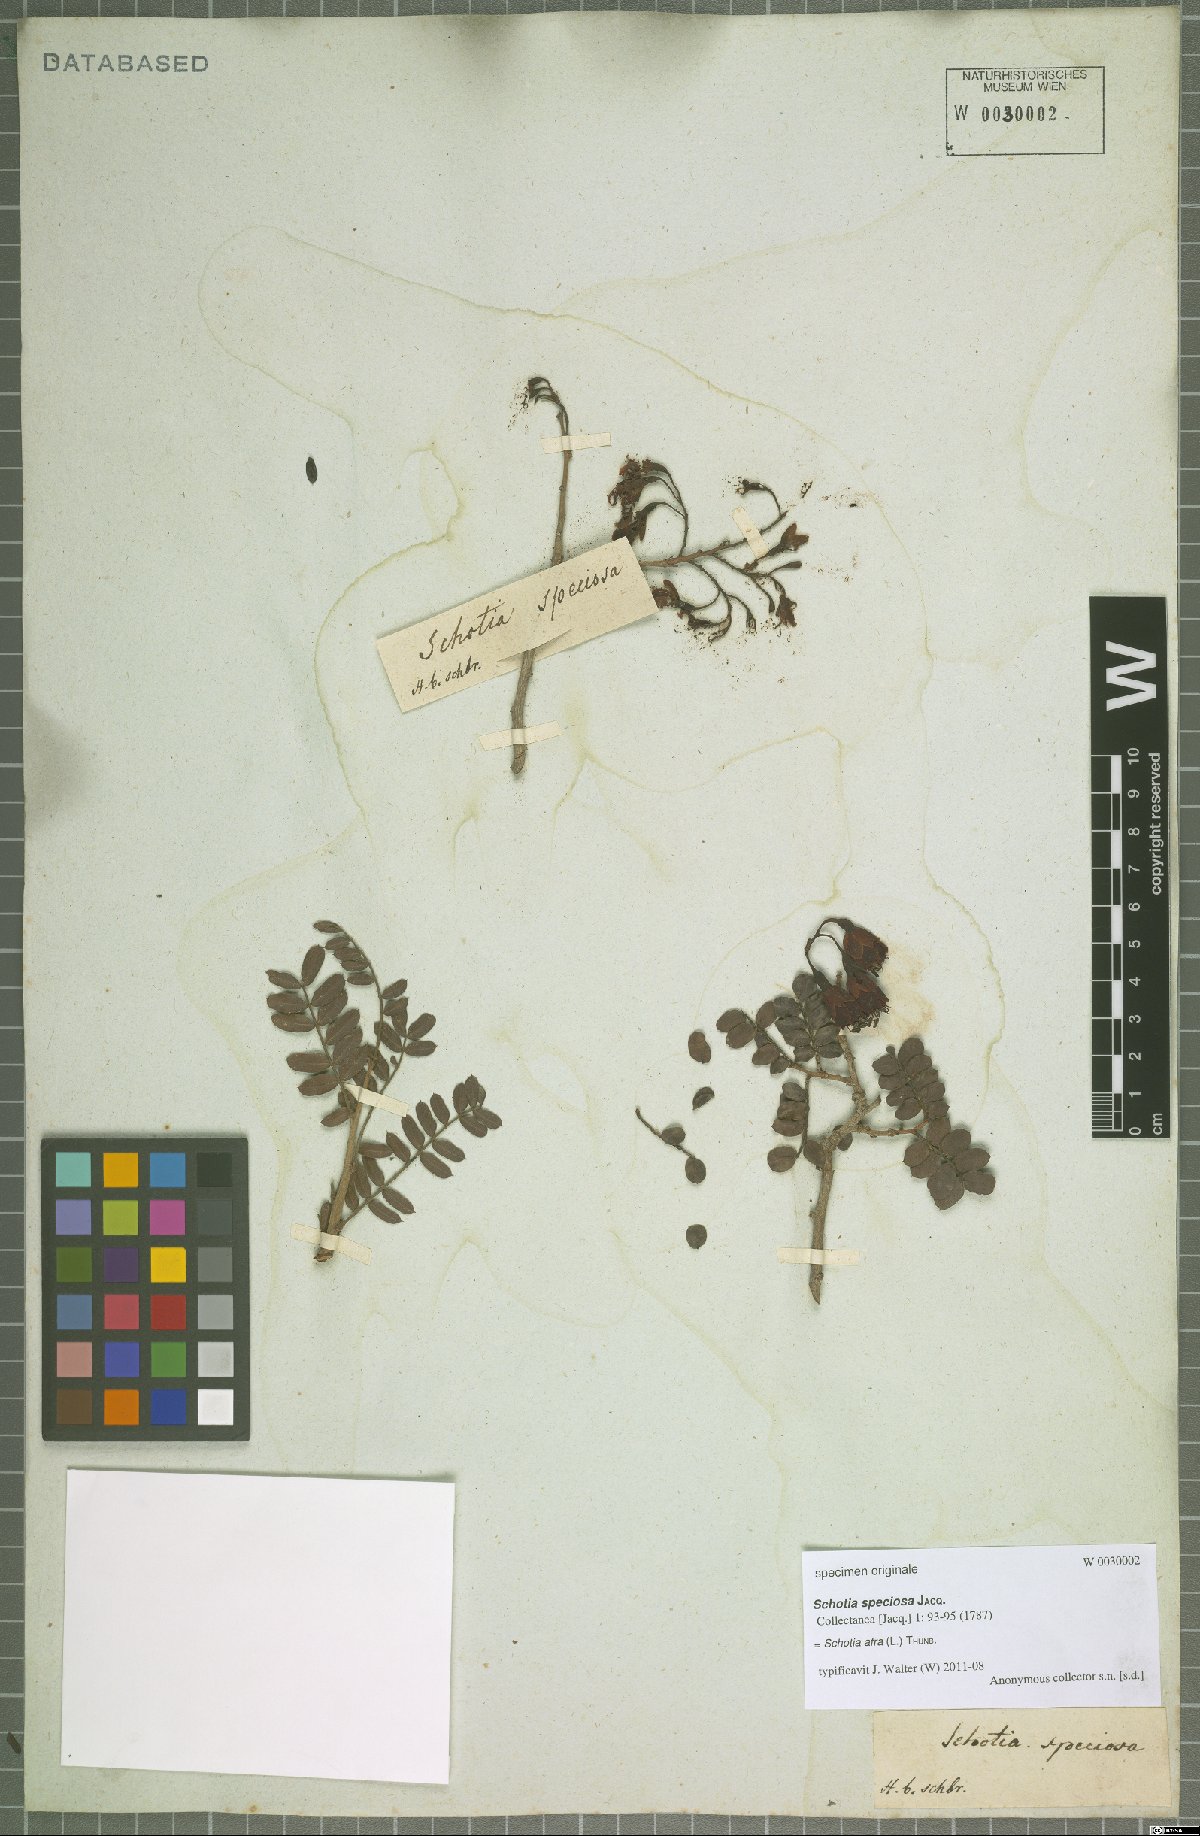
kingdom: Plantae
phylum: Tracheophyta
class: Magnoliopsida
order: Fabales
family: Fabaceae
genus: Schotia
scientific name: Schotia afra
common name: Hottentot's bean
